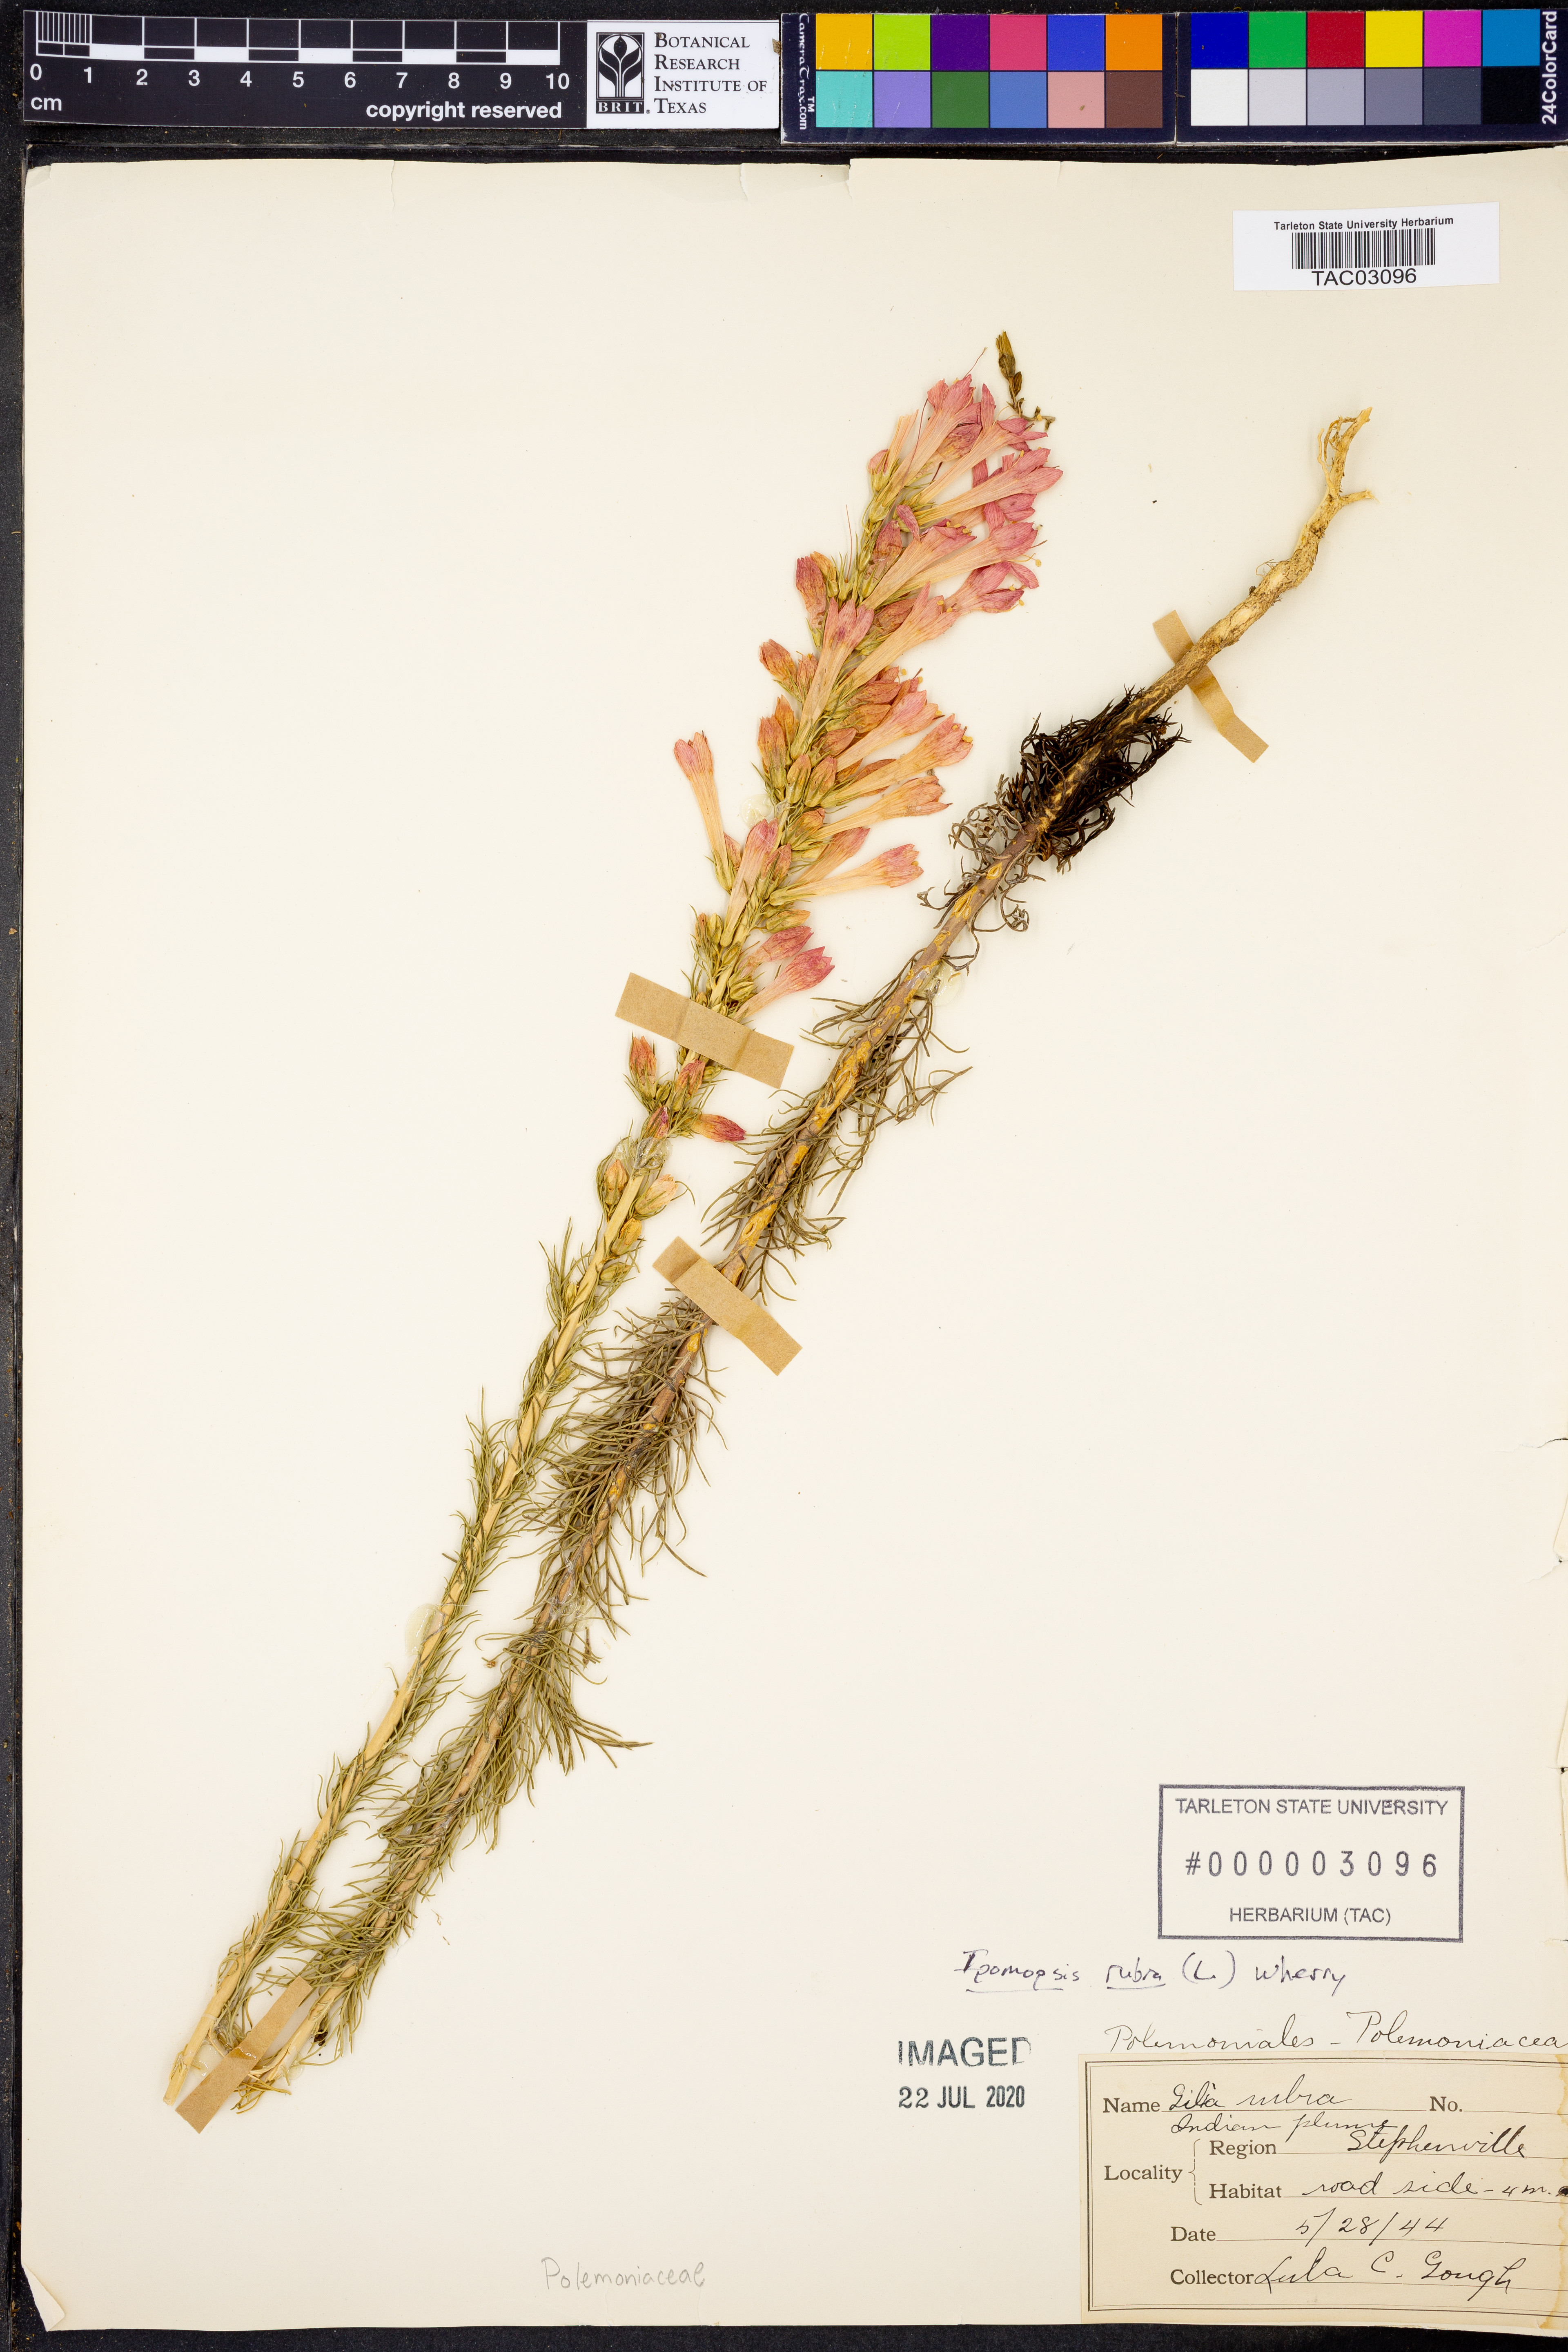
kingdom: Plantae
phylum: Tracheophyta
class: Magnoliopsida
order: Ericales
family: Polemoniaceae
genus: Ipomopsis
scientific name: Ipomopsis rubra
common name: Skyrocket
